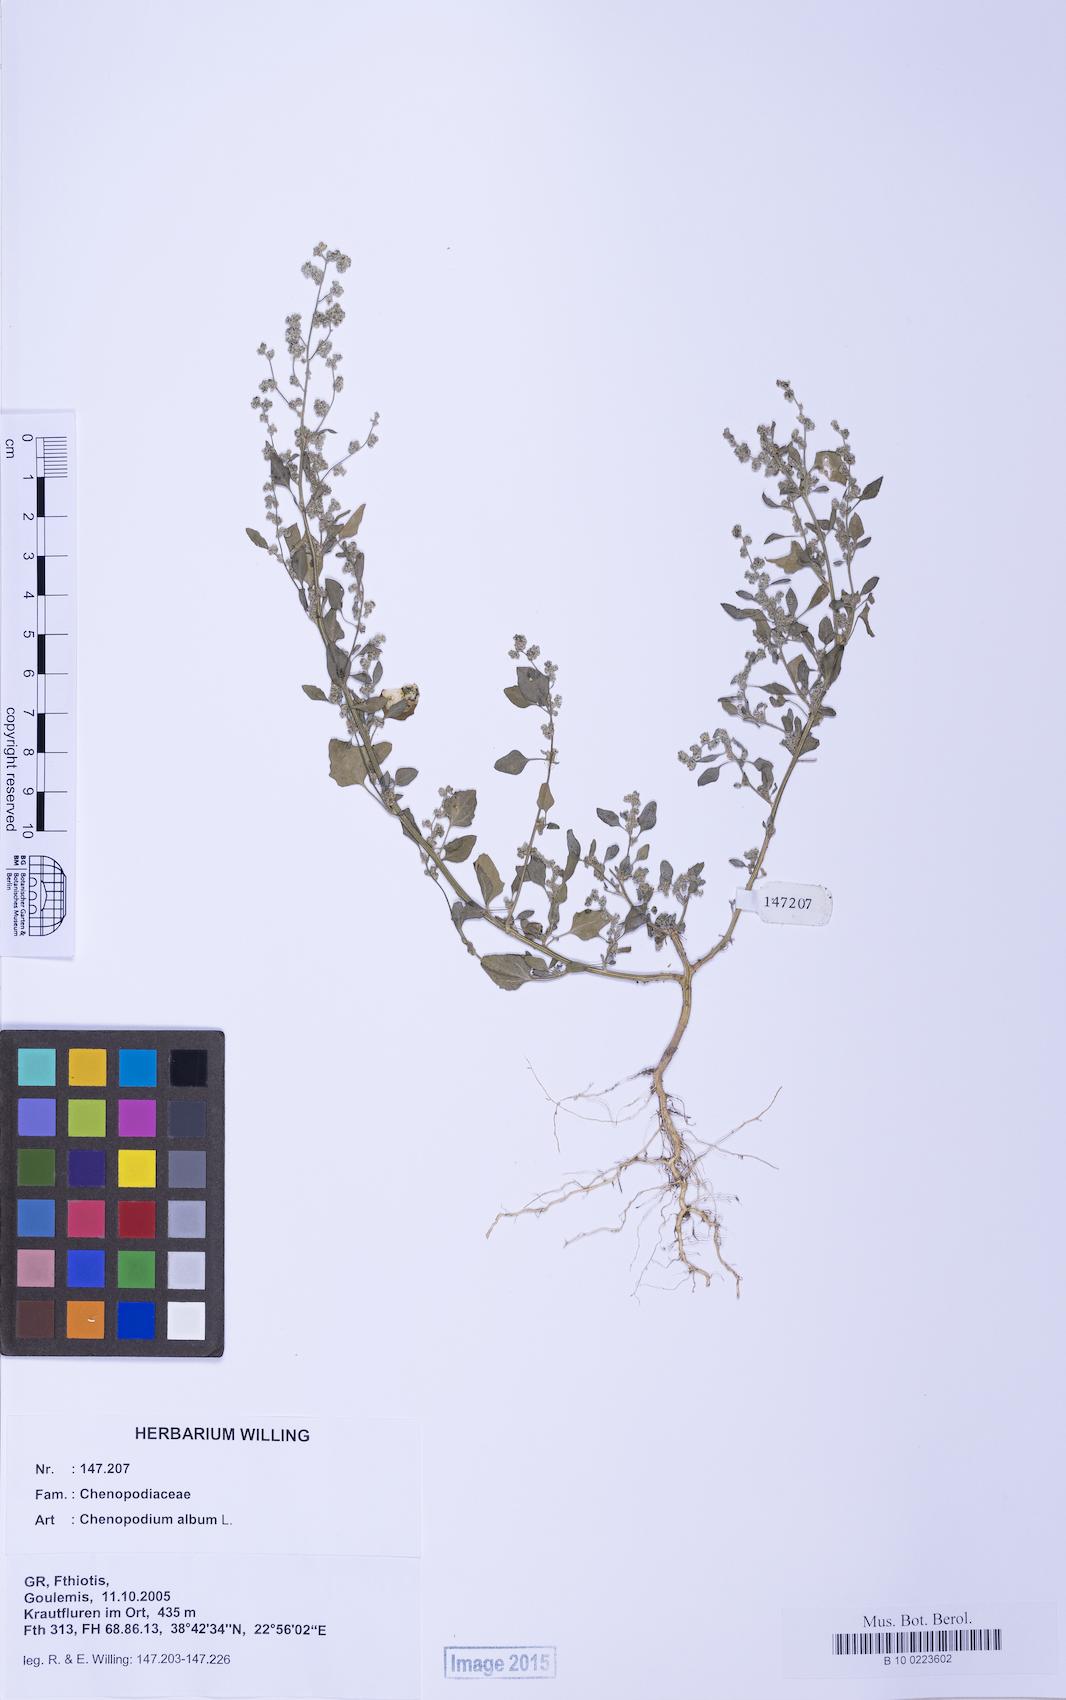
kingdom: Plantae
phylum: Tracheophyta
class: Magnoliopsida
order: Caryophyllales
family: Amaranthaceae
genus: Chenopodium
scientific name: Chenopodium striatiforme
